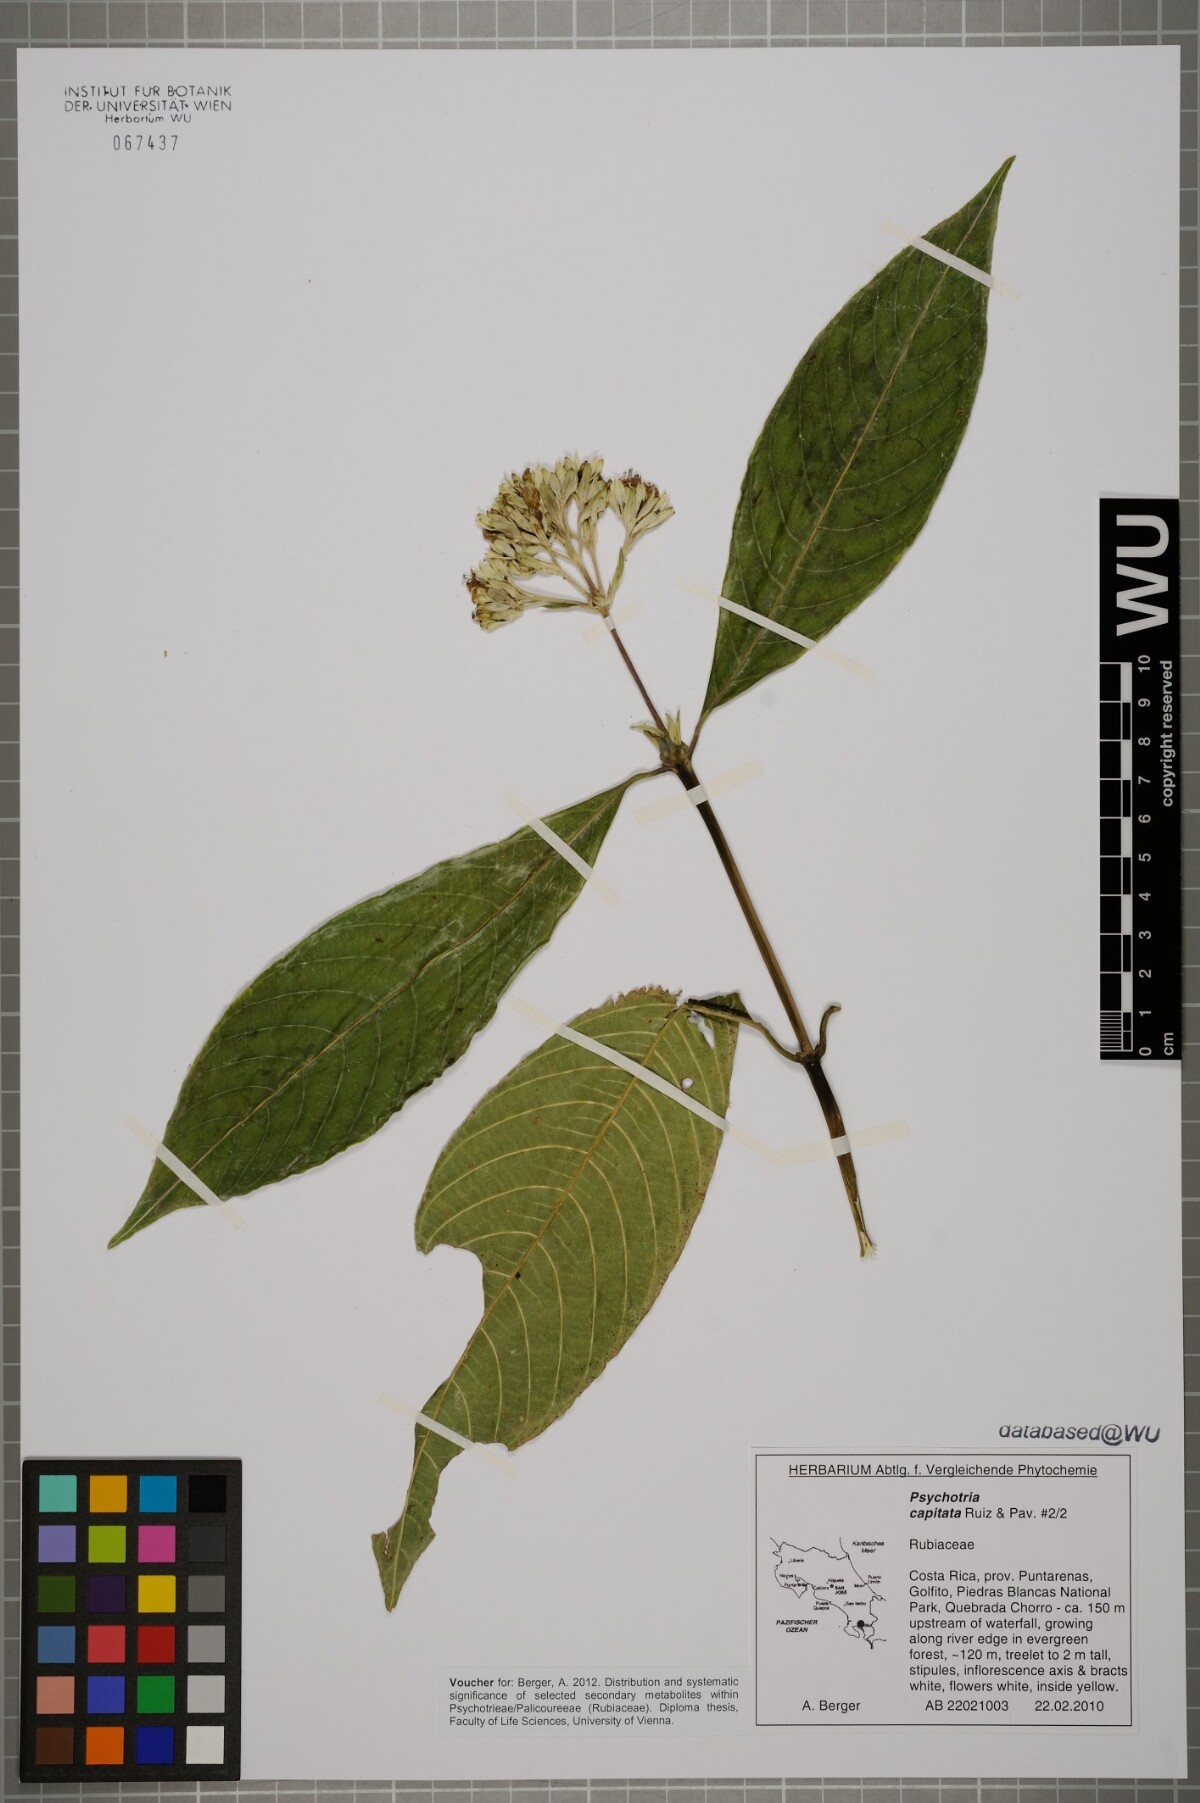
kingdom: Plantae
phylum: Tracheophyta
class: Magnoliopsida
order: Gentianales
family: Rubiaceae
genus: Palicourea
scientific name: Palicourea violacea
